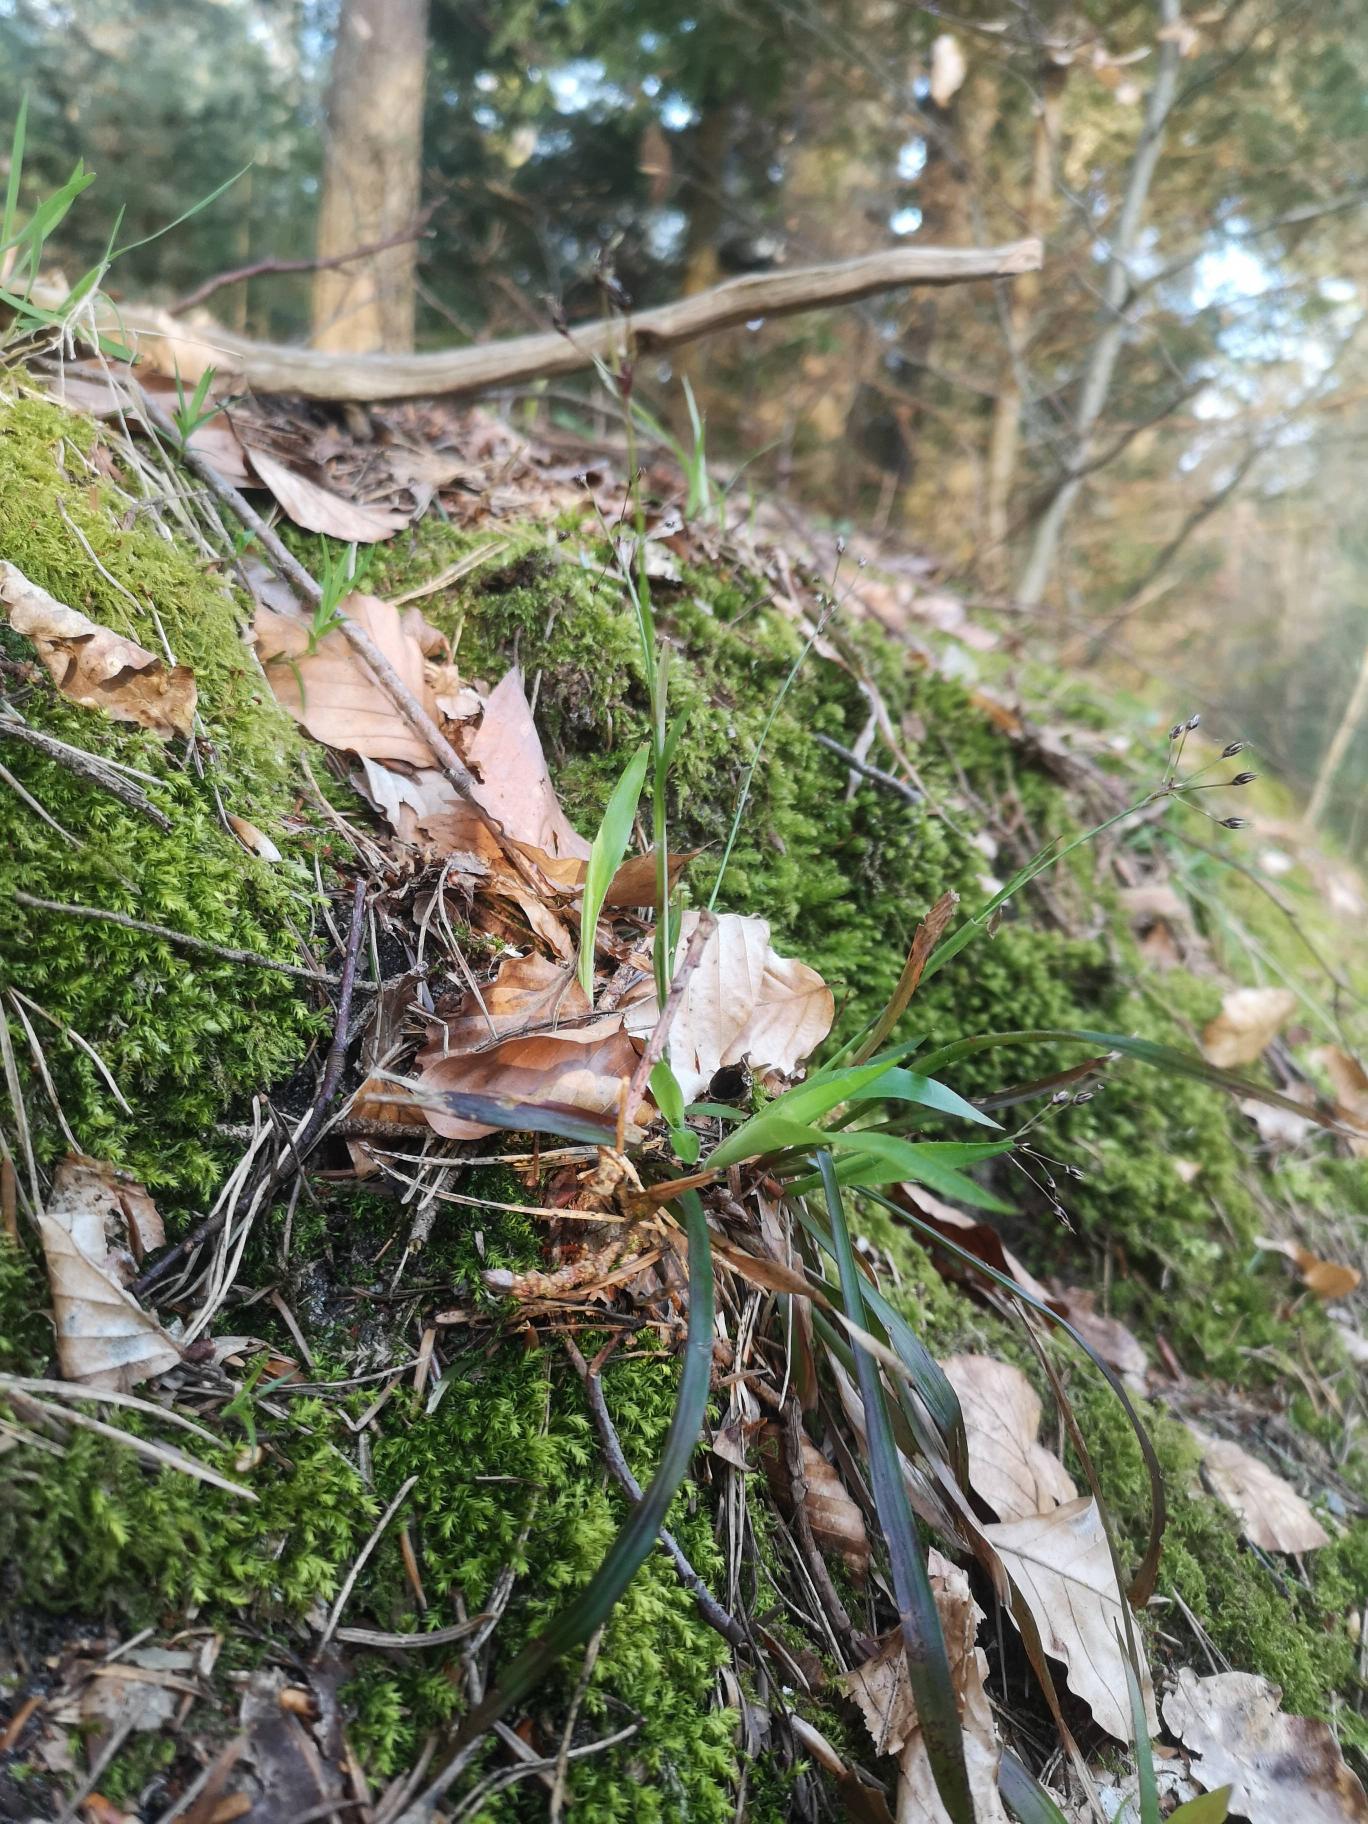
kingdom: Plantae
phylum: Tracheophyta
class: Liliopsida
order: Poales
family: Juncaceae
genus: Luzula
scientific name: Luzula pilosa
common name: Håret frytle
